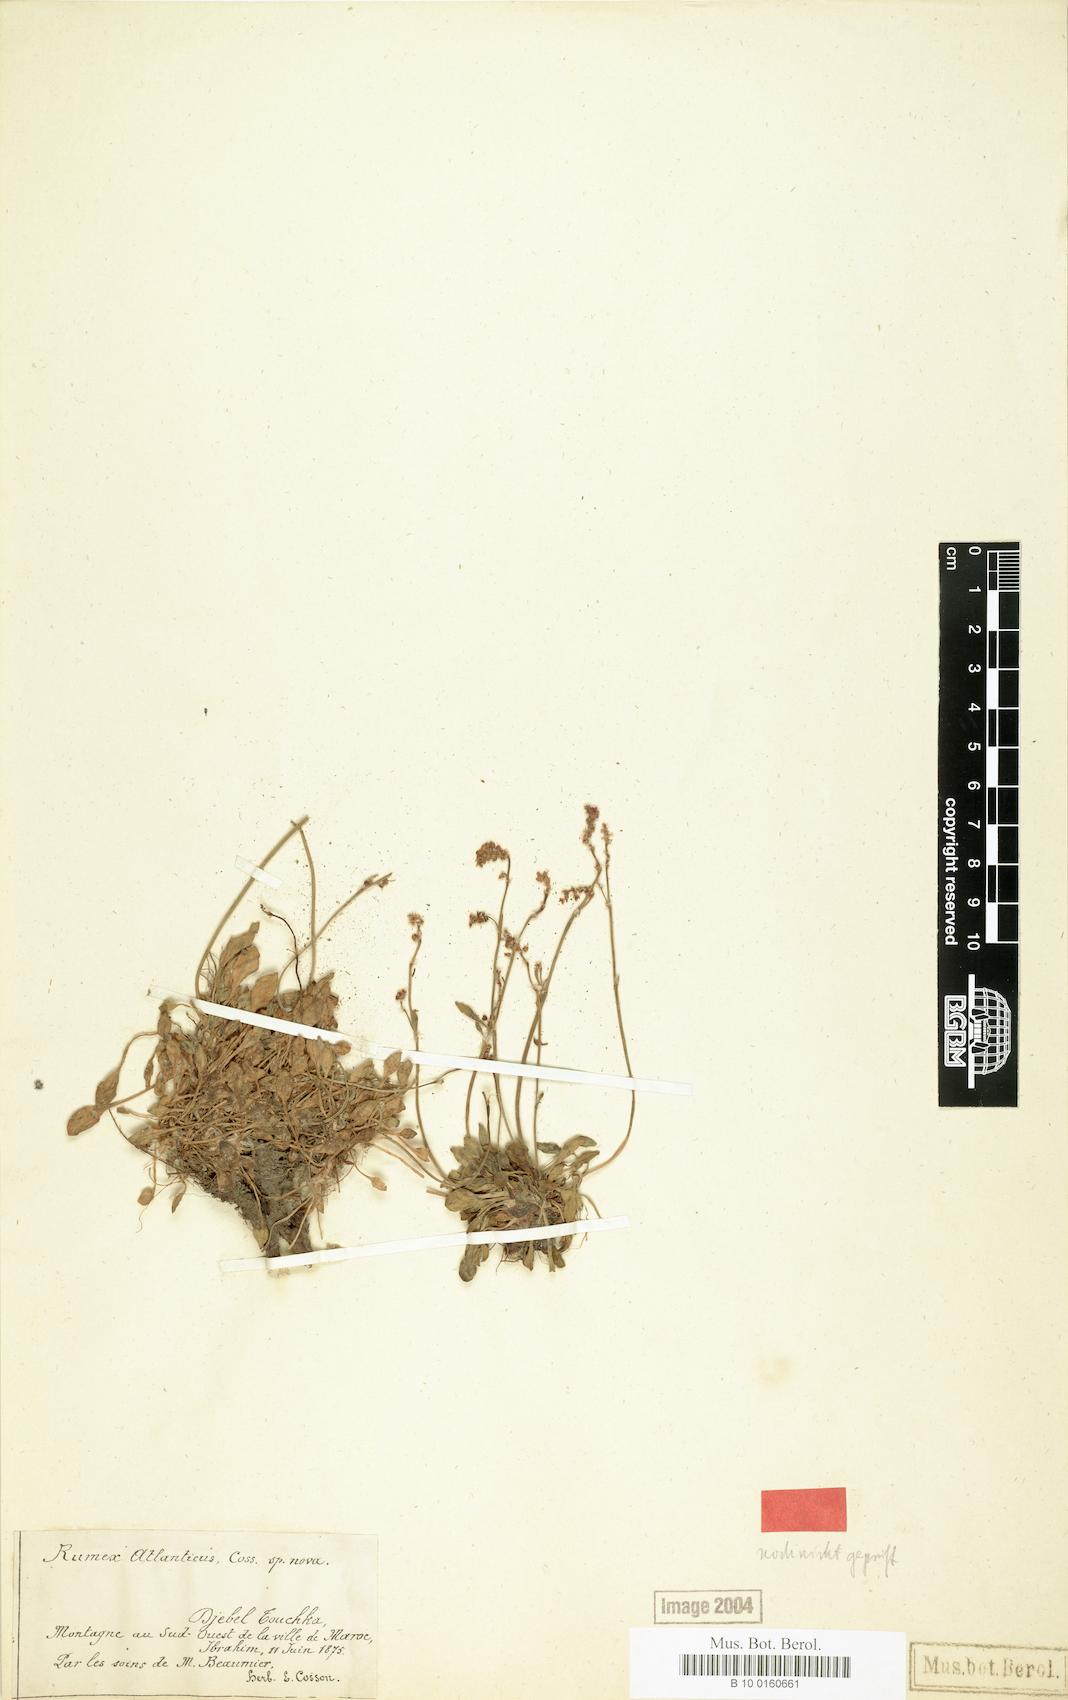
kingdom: Plantae
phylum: Tracheophyta
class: Magnoliopsida
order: Caryophyllales
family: Polygonaceae
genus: Rumex
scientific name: Rumex atlanticus
